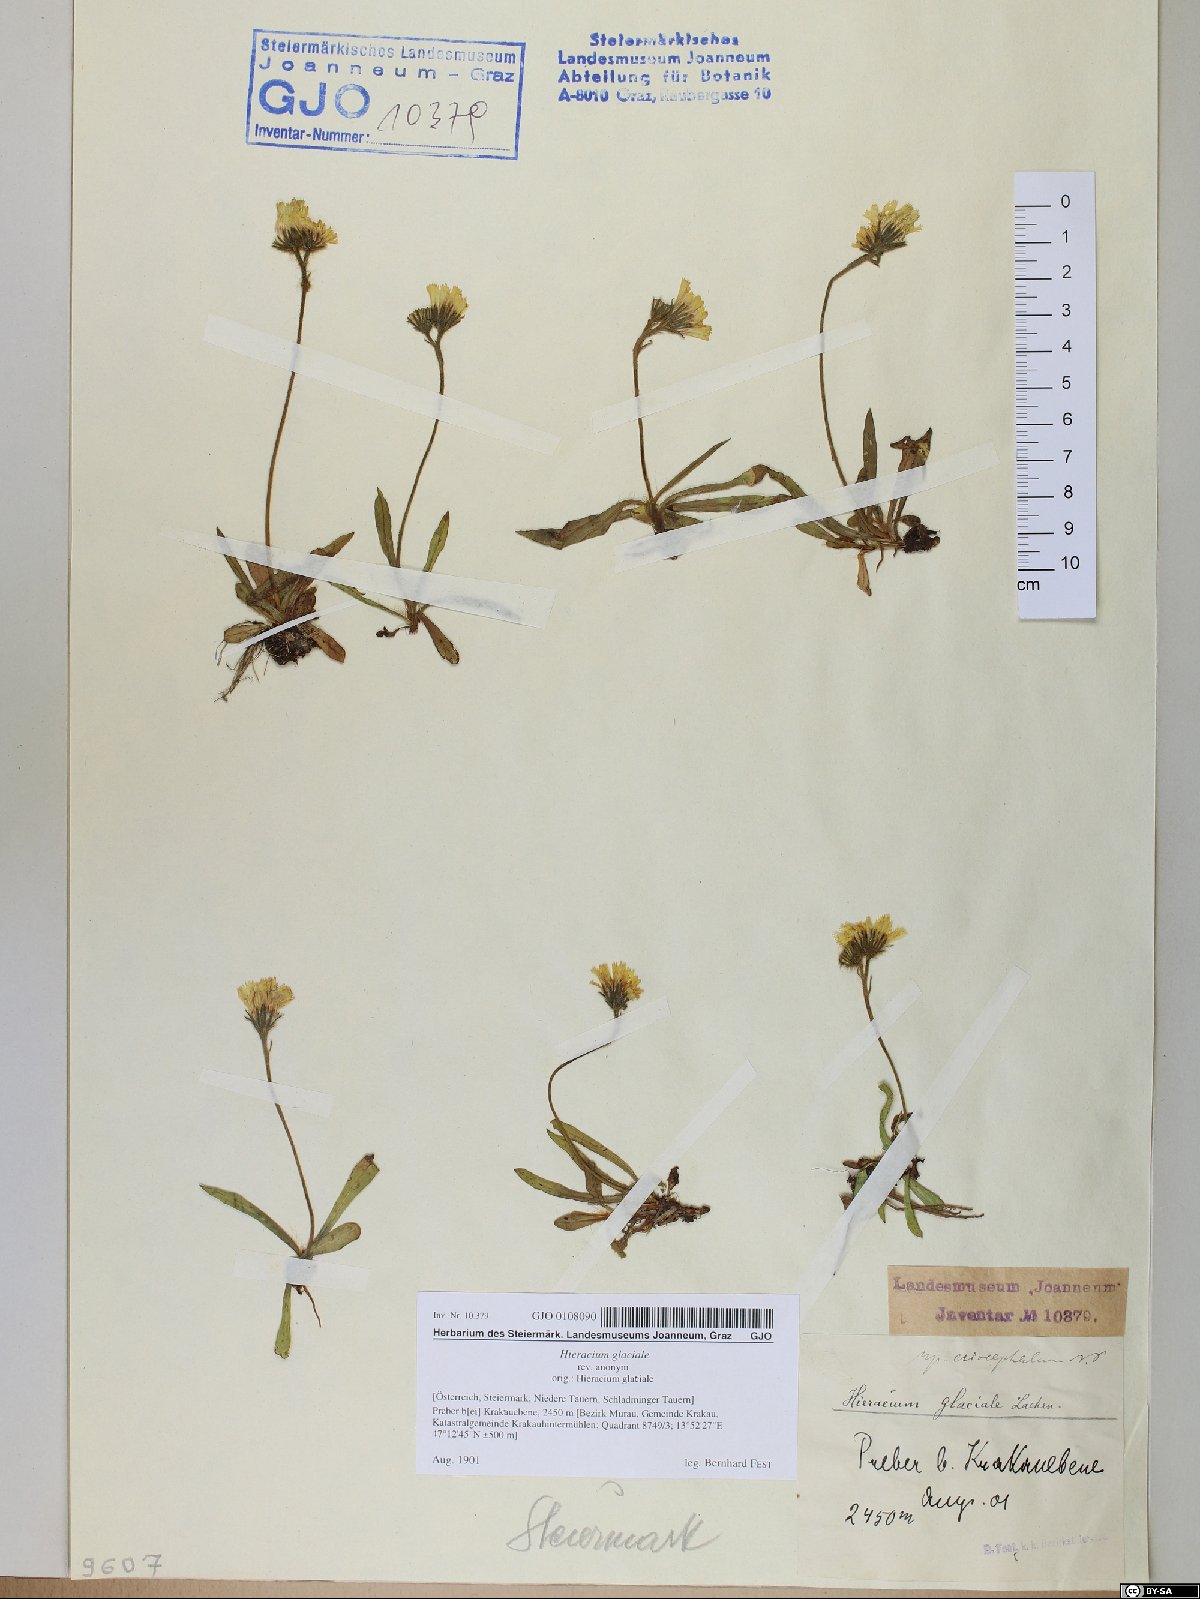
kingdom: Plantae
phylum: Tracheophyta
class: Magnoliopsida
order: Asterales
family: Asteraceae
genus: Pilosella
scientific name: Pilosella glacialis
